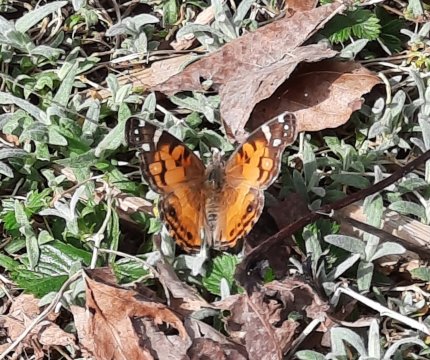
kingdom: Animalia
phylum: Arthropoda
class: Insecta
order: Lepidoptera
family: Nymphalidae
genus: Vanessa
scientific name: Vanessa virginiensis
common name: American Lady
